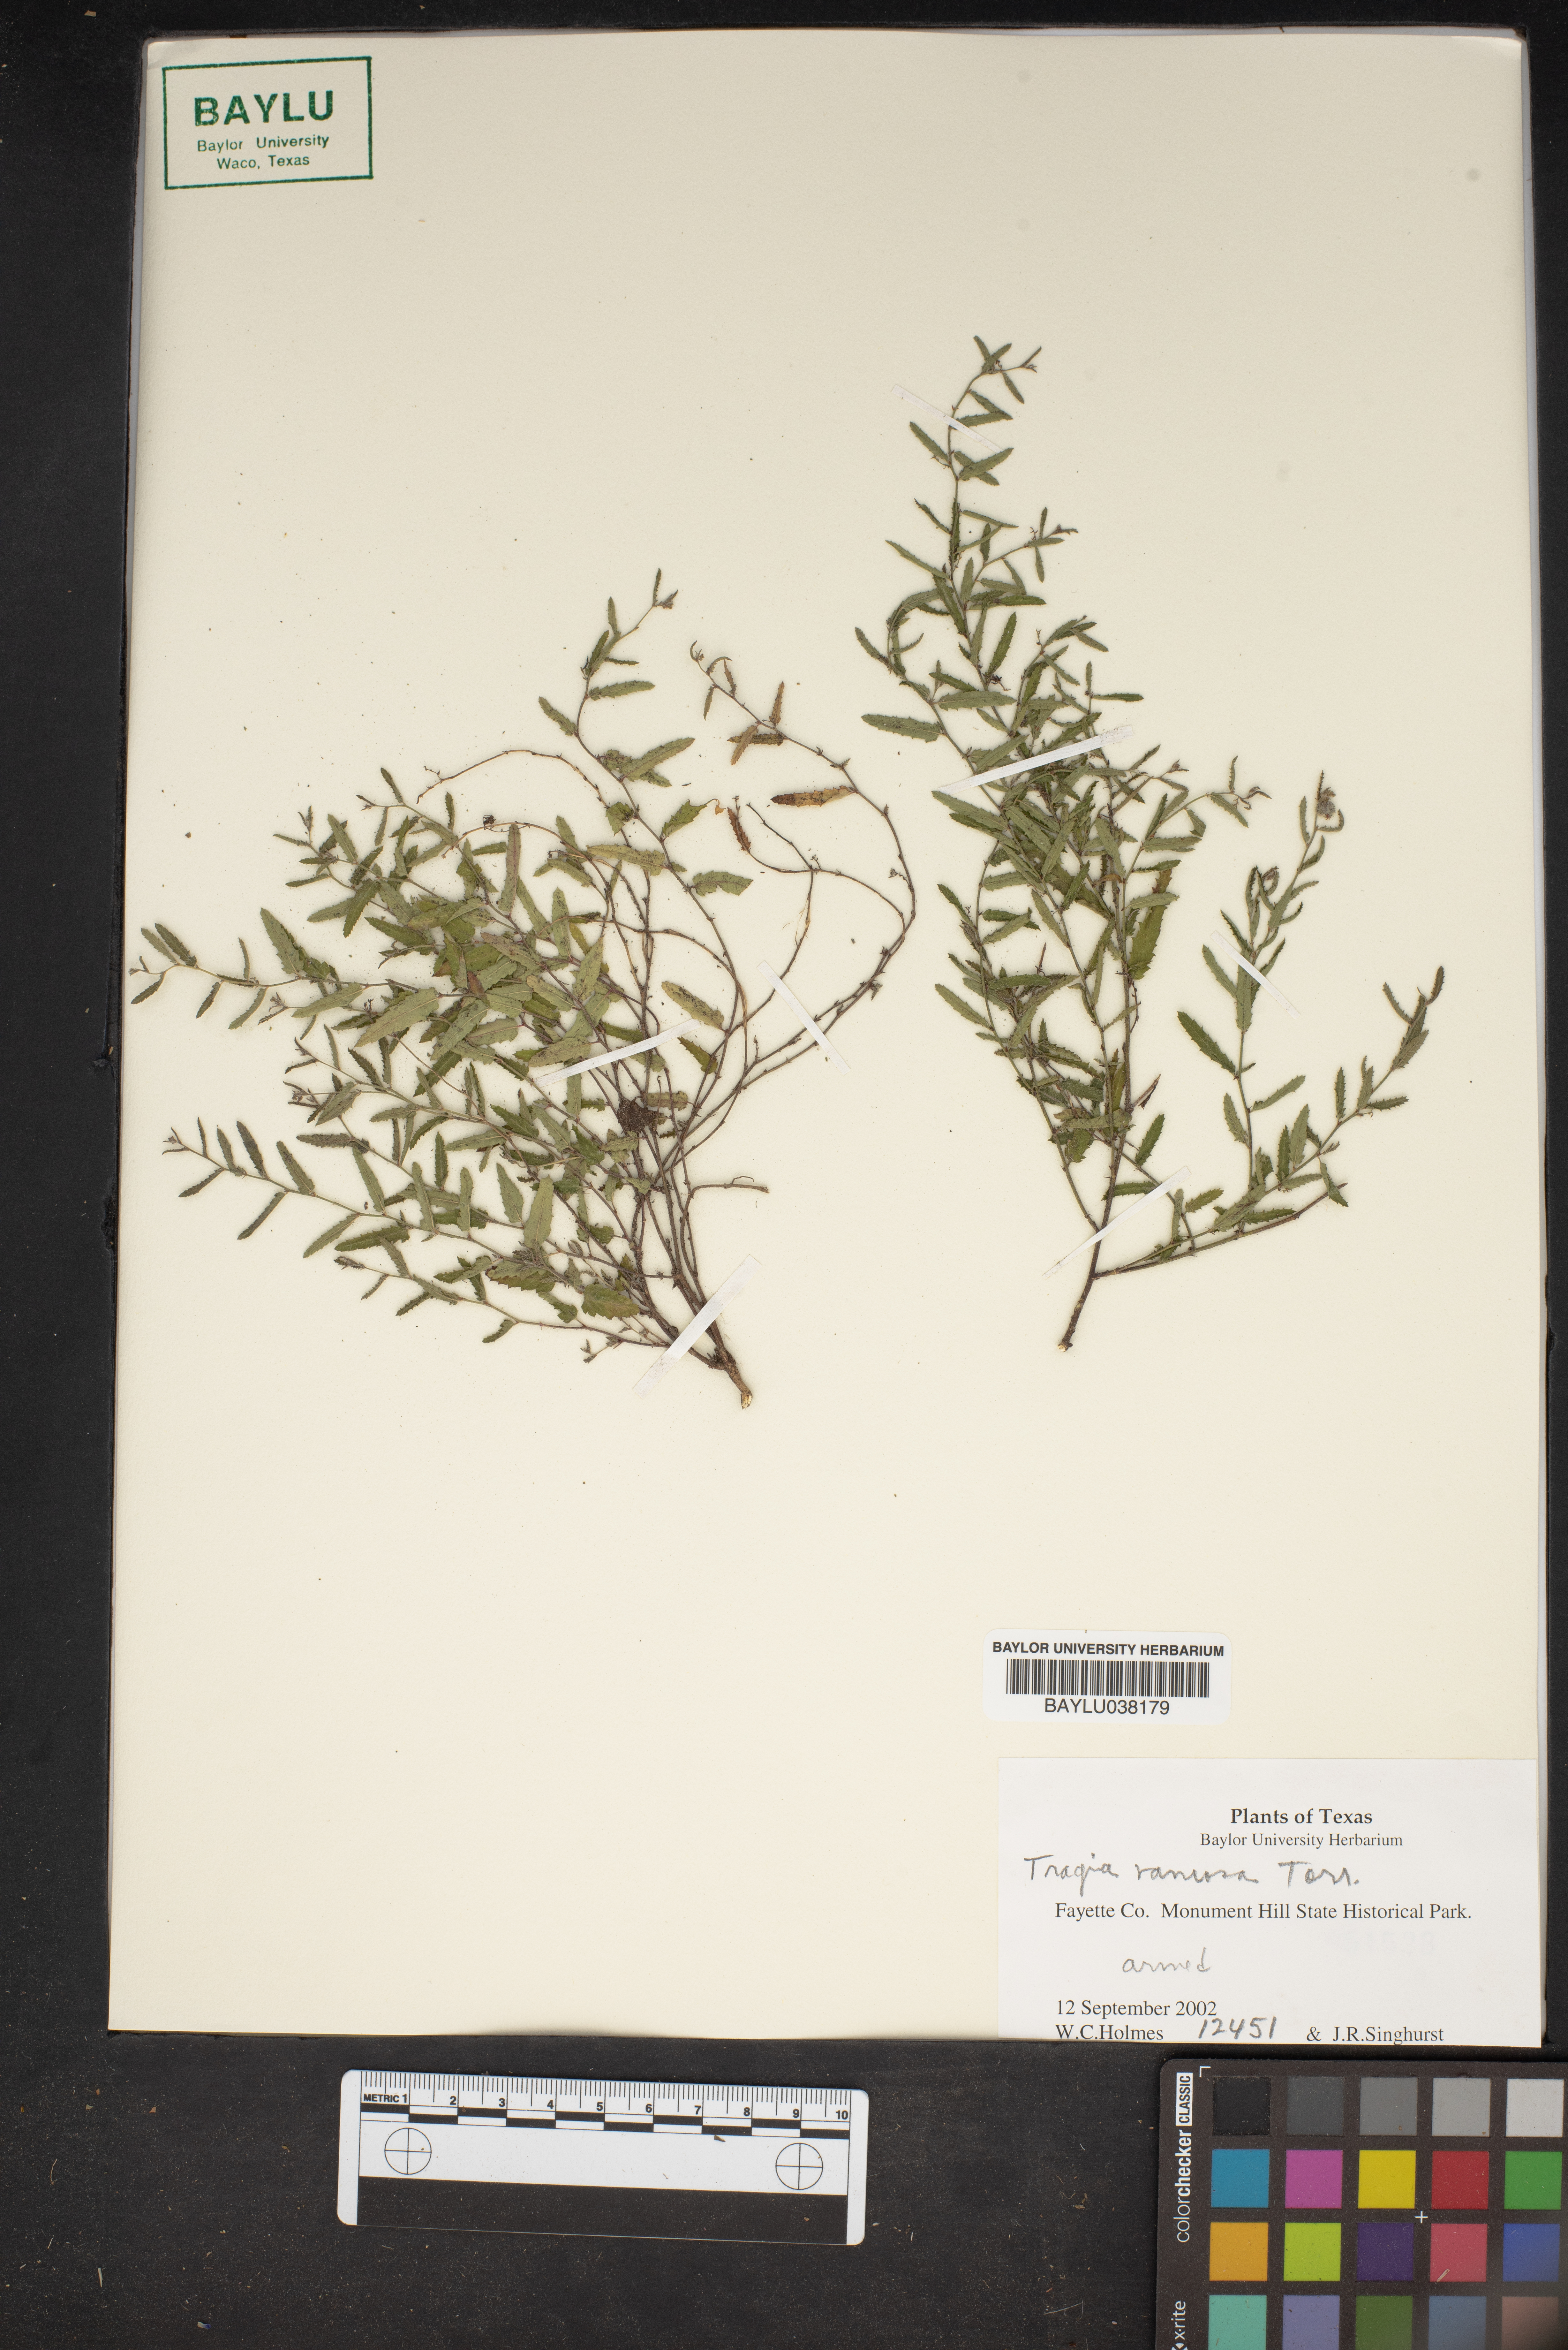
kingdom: Plantae
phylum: Tracheophyta
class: Magnoliopsida
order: Malpighiales
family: Euphorbiaceae
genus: Tragia
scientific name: Tragia ramosa
